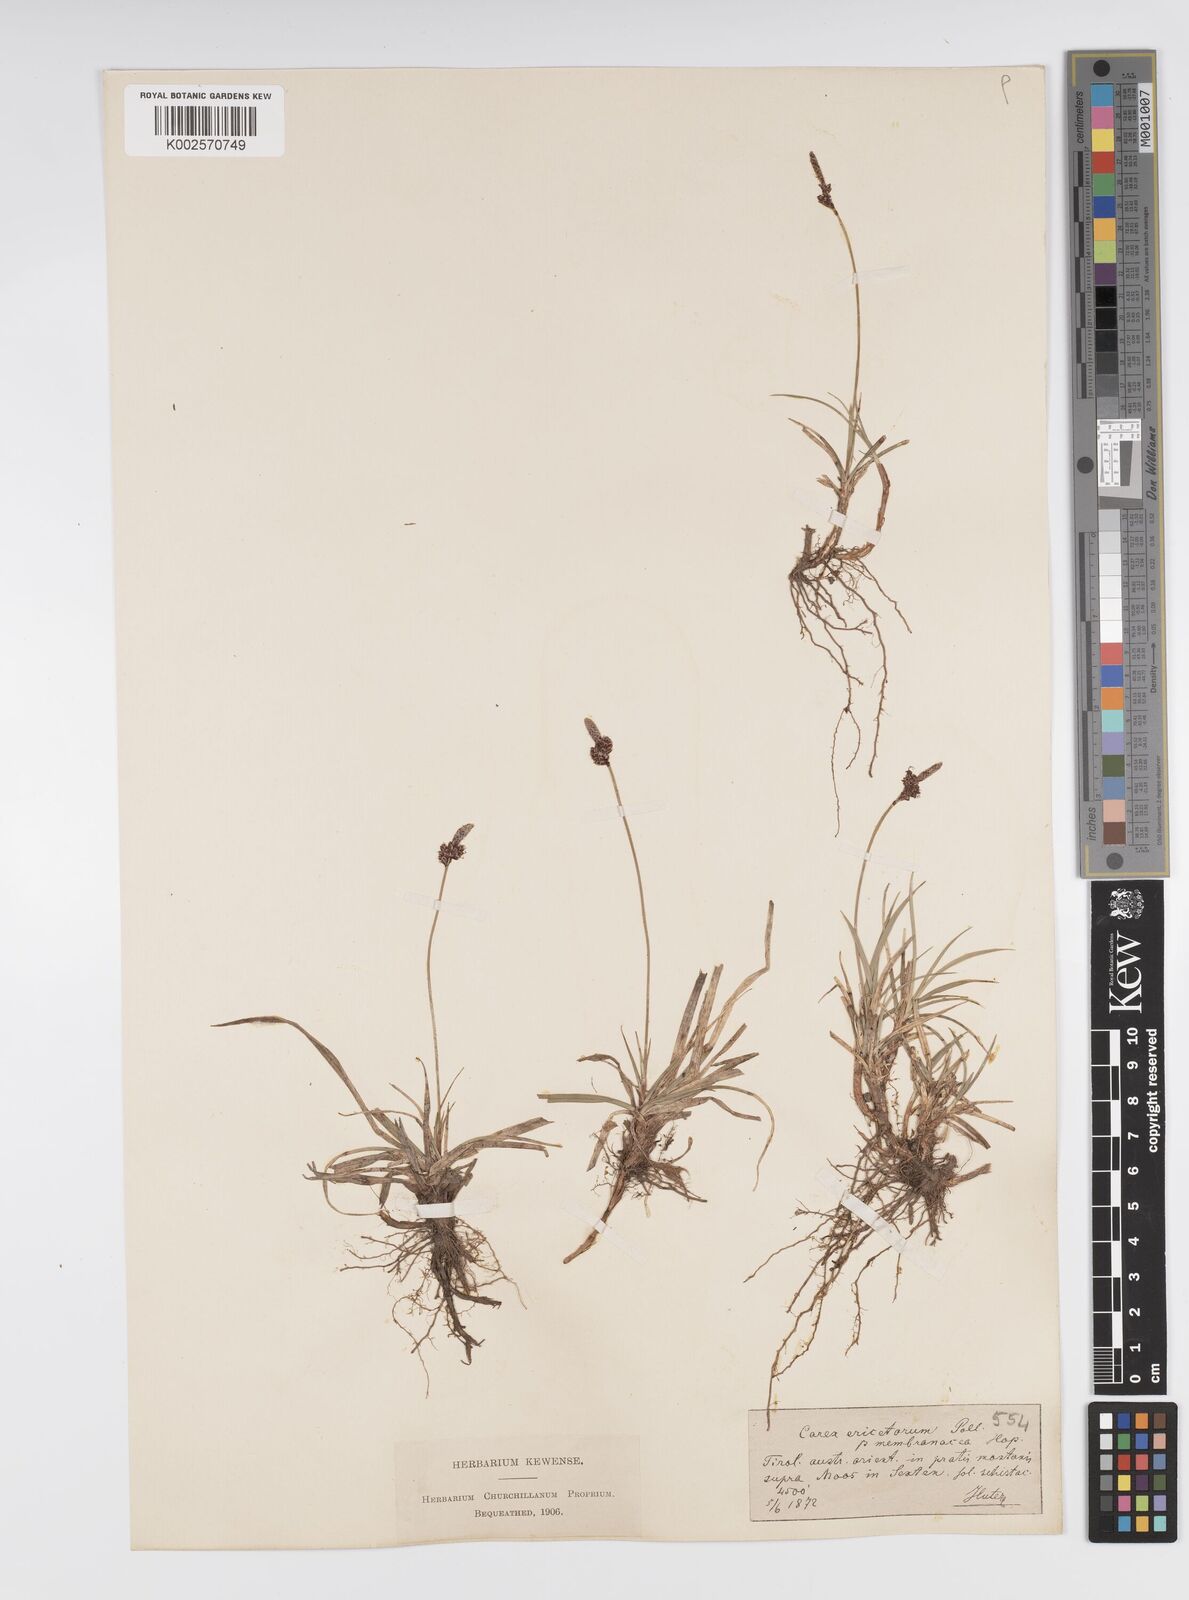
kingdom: Plantae
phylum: Tracheophyta
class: Liliopsida
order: Poales
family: Cyperaceae
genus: Carex
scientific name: Carex ericetorum
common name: Rare spring-sedge
